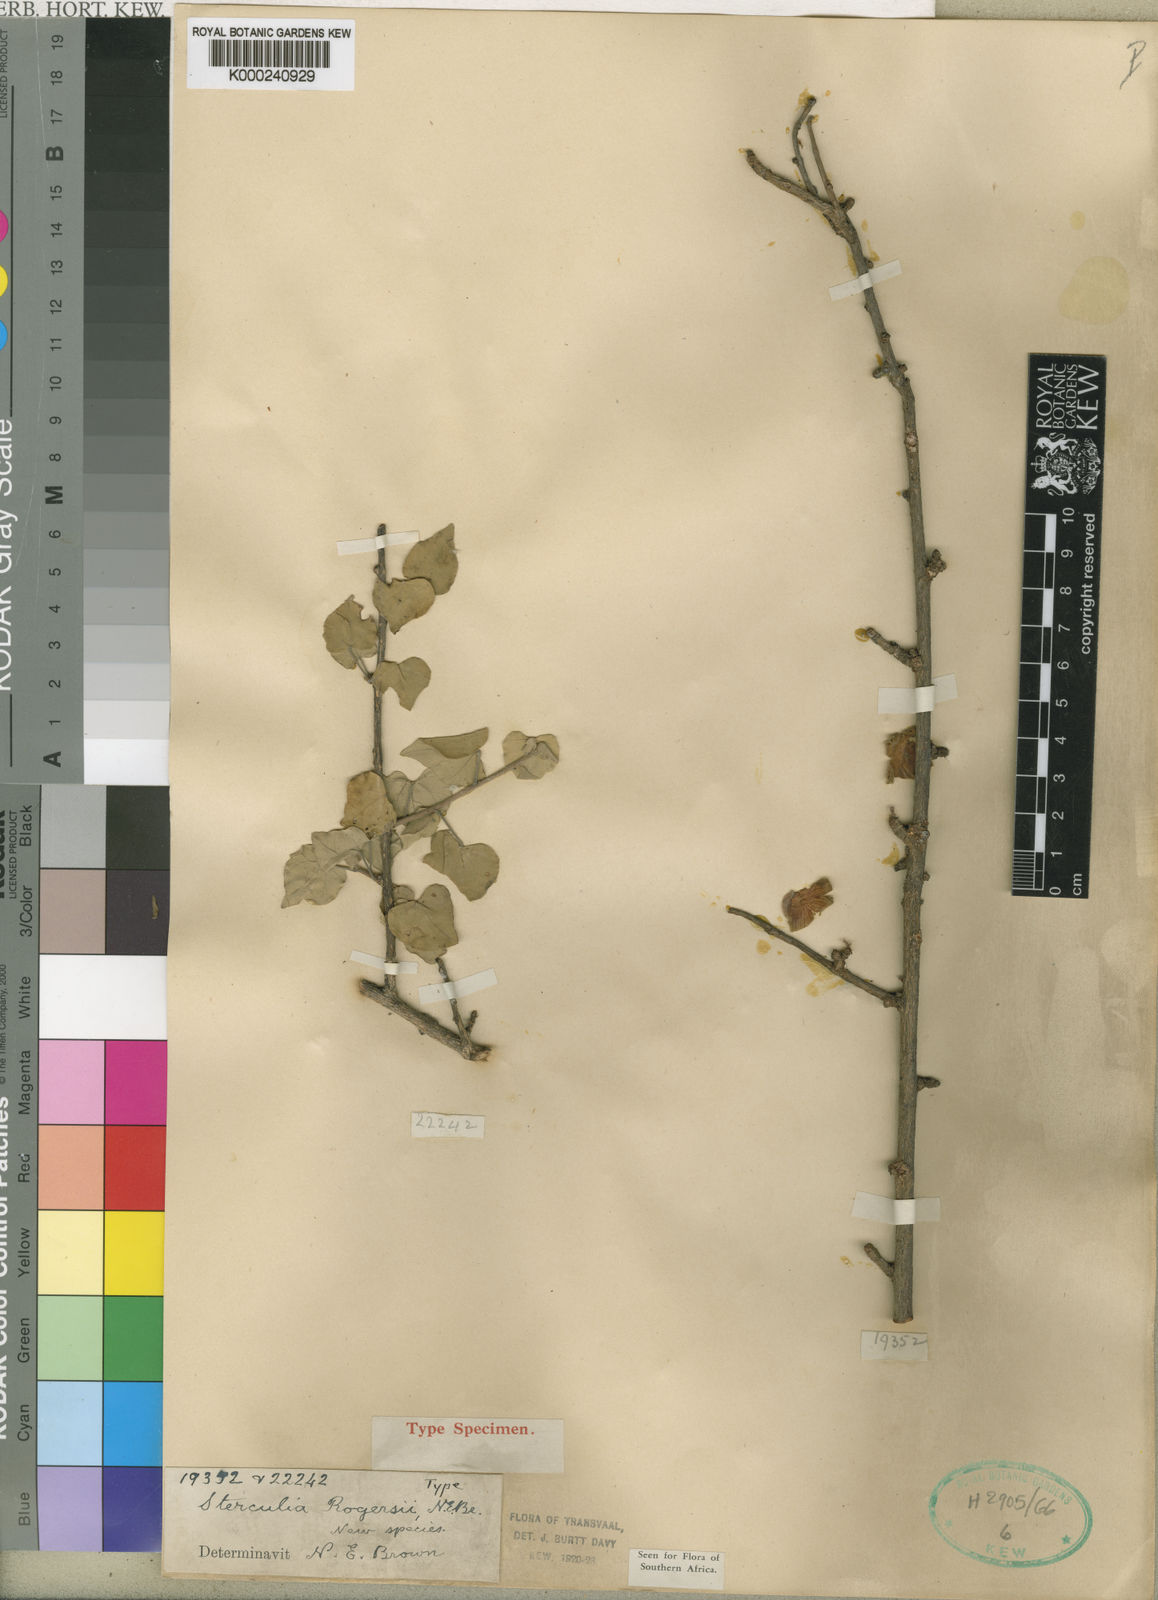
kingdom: Plantae
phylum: Tracheophyta
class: Magnoliopsida
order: Malvales
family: Malvaceae
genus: Sterculia
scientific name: Sterculia rogersii
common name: Star-chestnut
